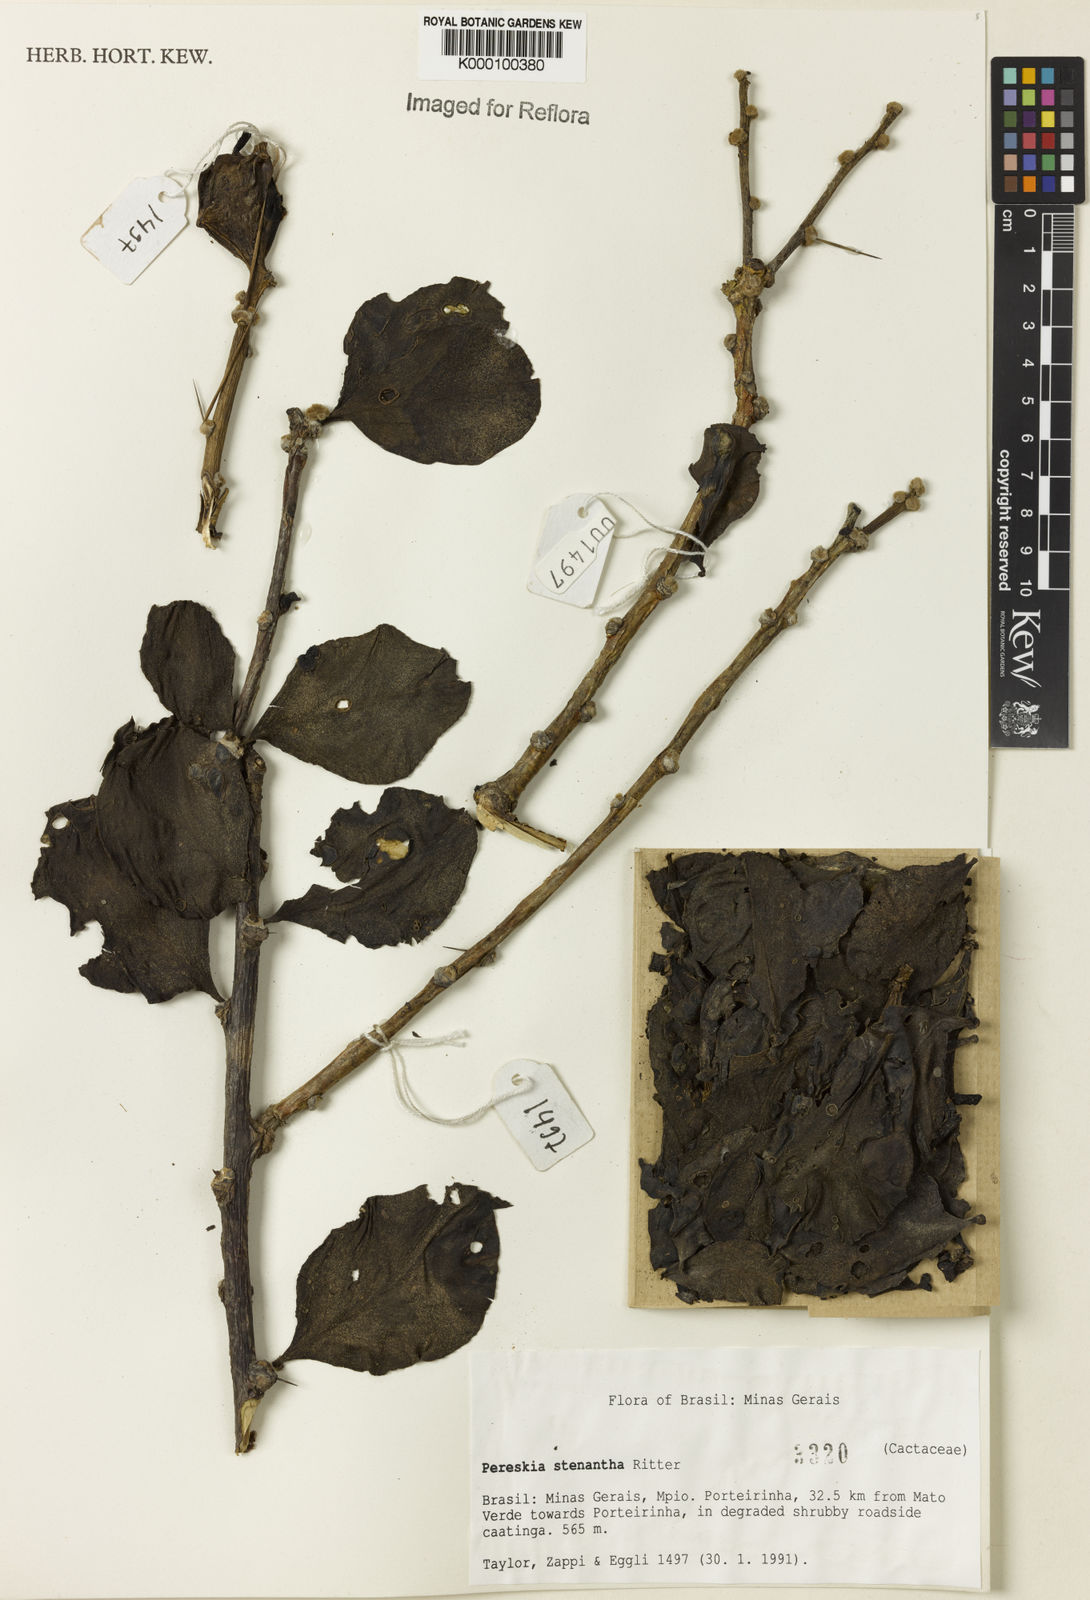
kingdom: Plantae
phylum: Tracheophyta
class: Magnoliopsida
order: Caryophyllales
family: Cactaceae
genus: Pereskia
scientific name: Pereskia stenantha
